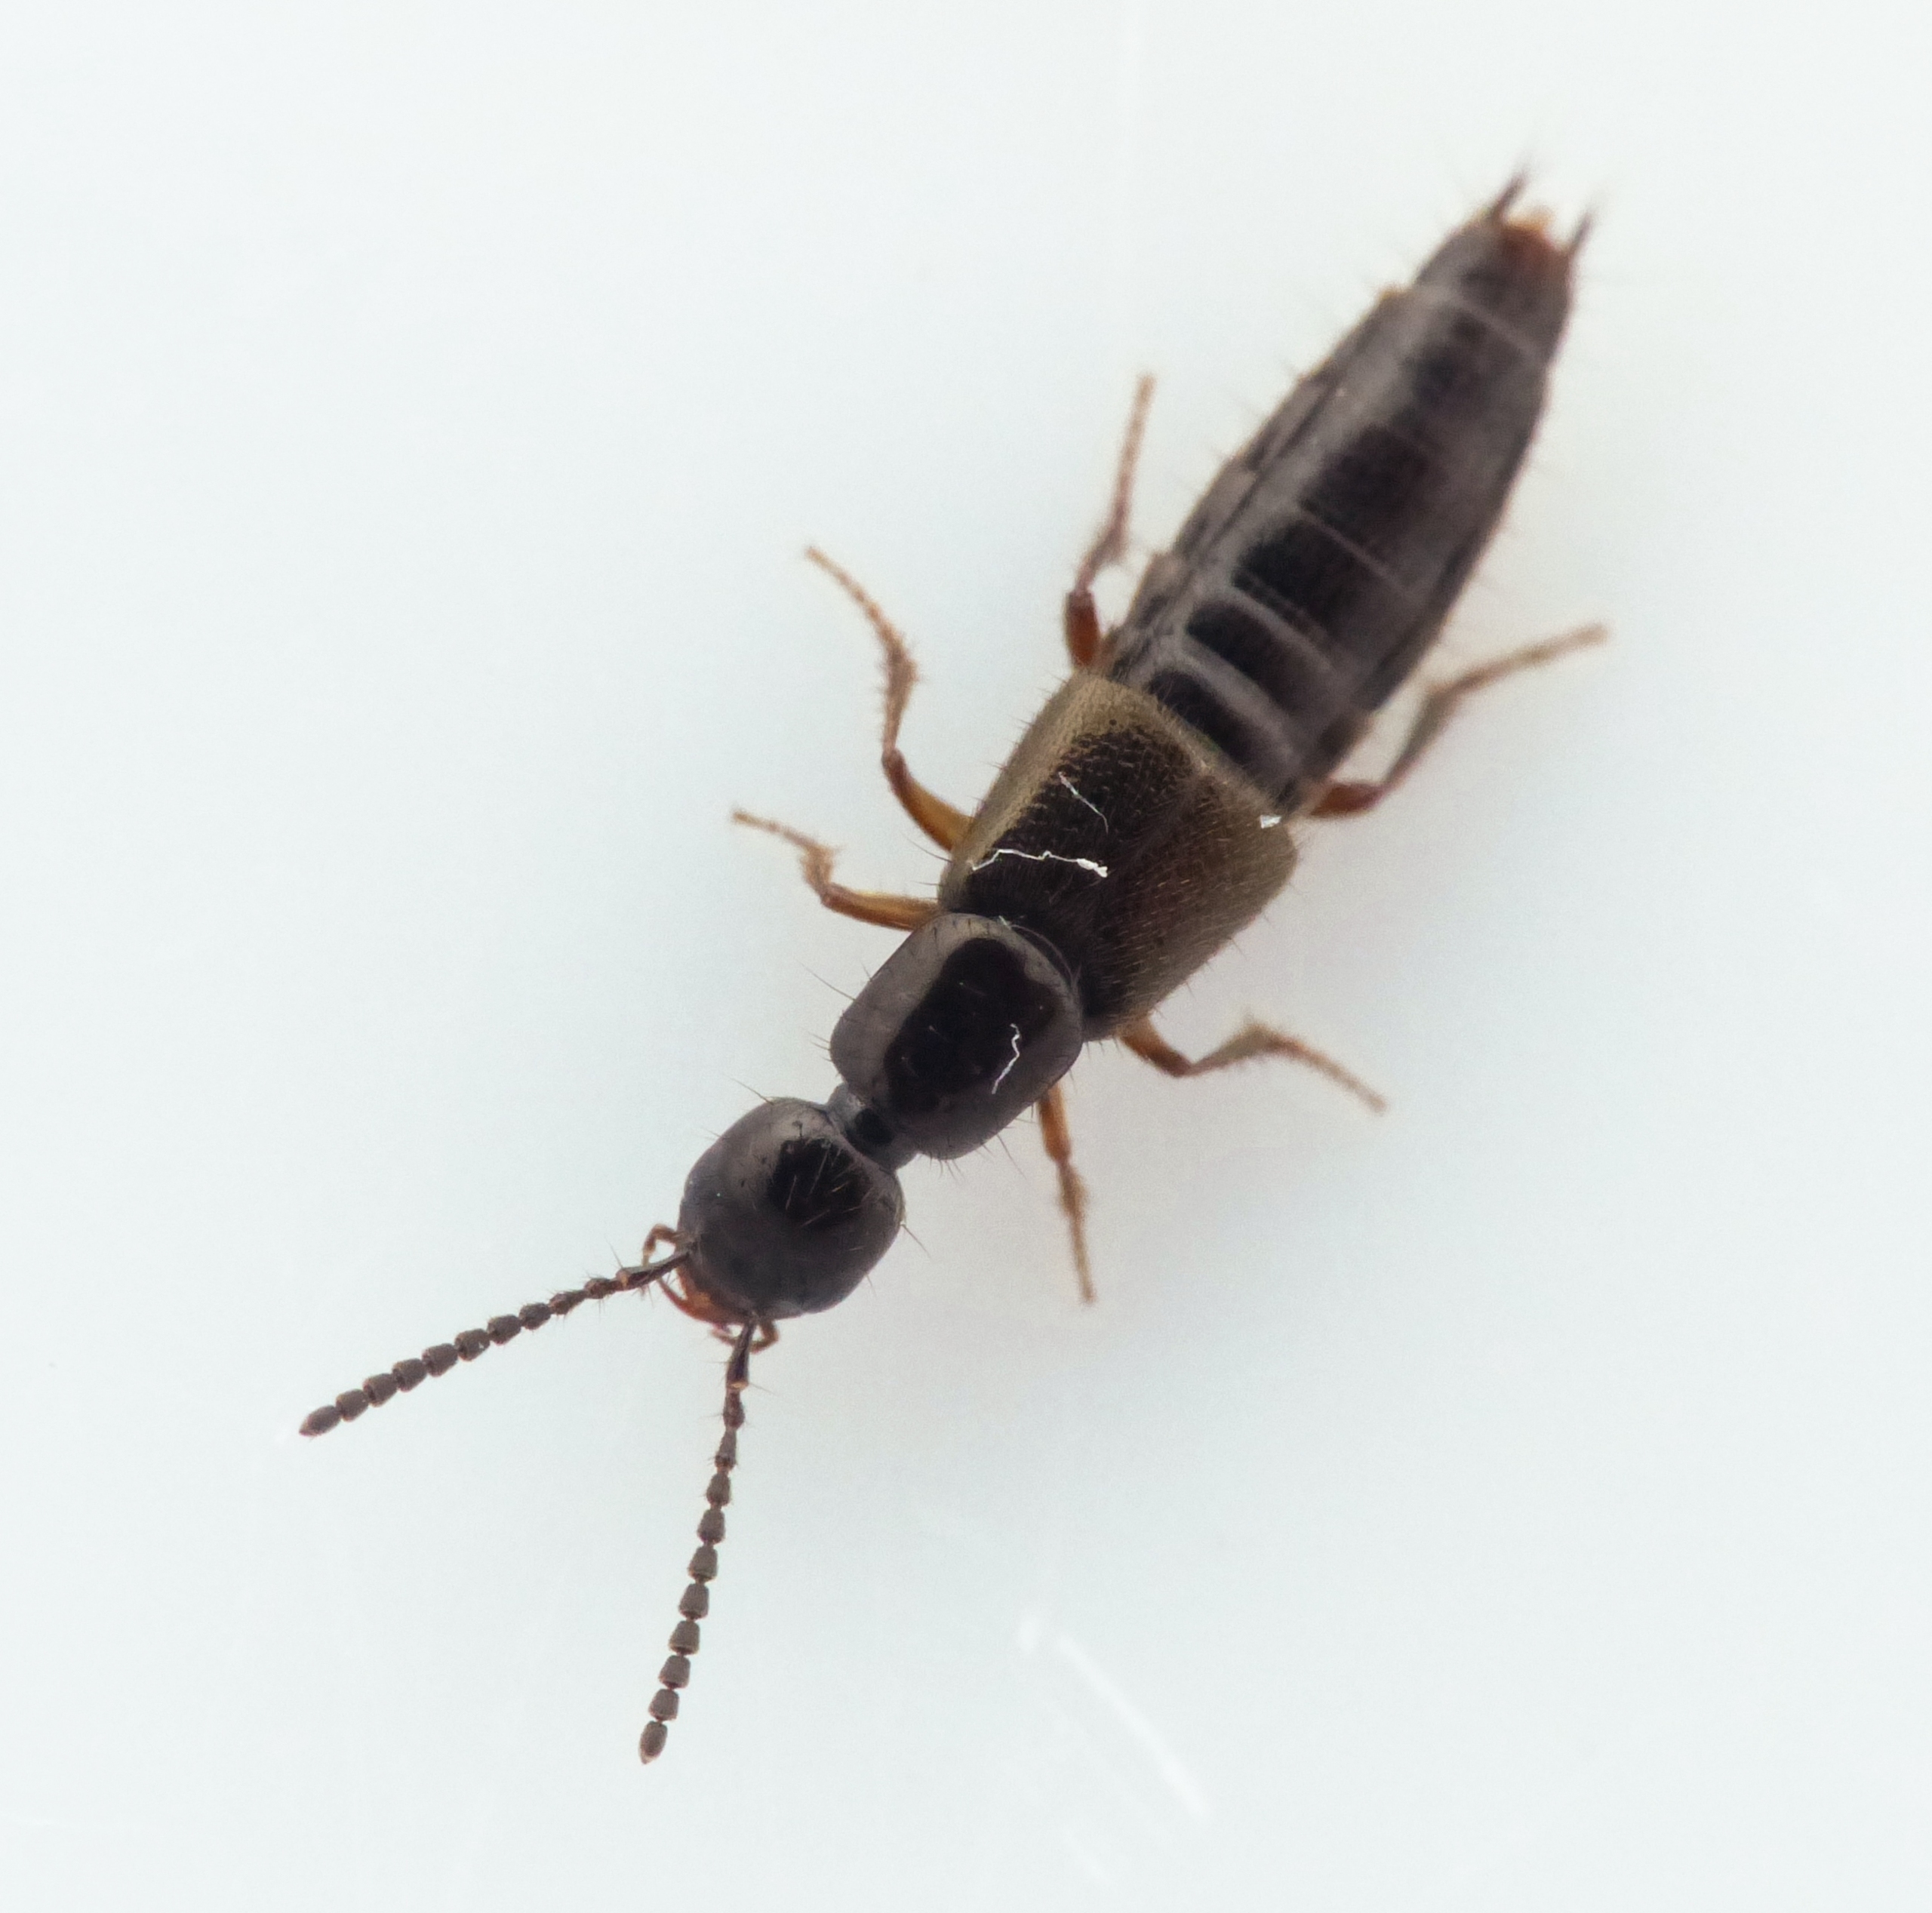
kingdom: Animalia
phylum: Arthropoda
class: Insecta
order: Coleoptera
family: Staphylinidae
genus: Bisnius
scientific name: Bisnius fimetarius
